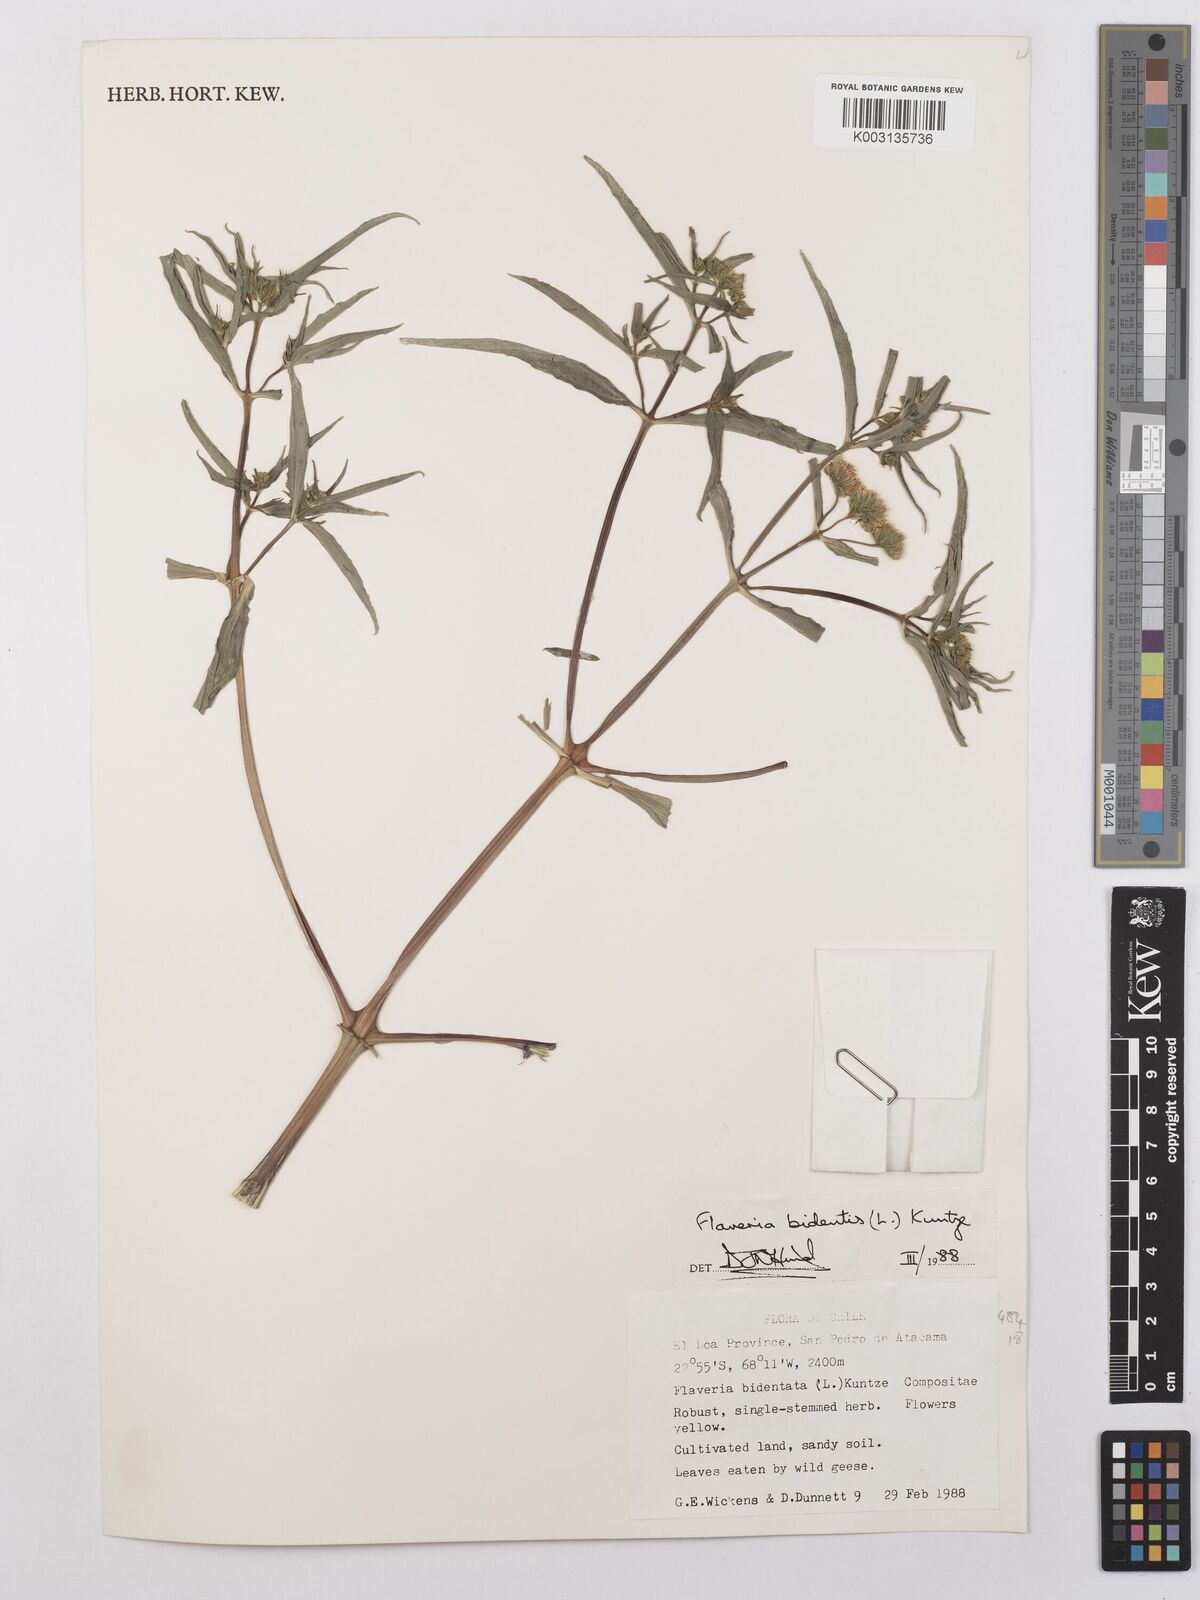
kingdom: Plantae
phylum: Tracheophyta
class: Magnoliopsida
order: Asterales
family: Asteraceae
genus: Flaveria
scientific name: Flaveria bidentis
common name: Coastal plain yellowtops
